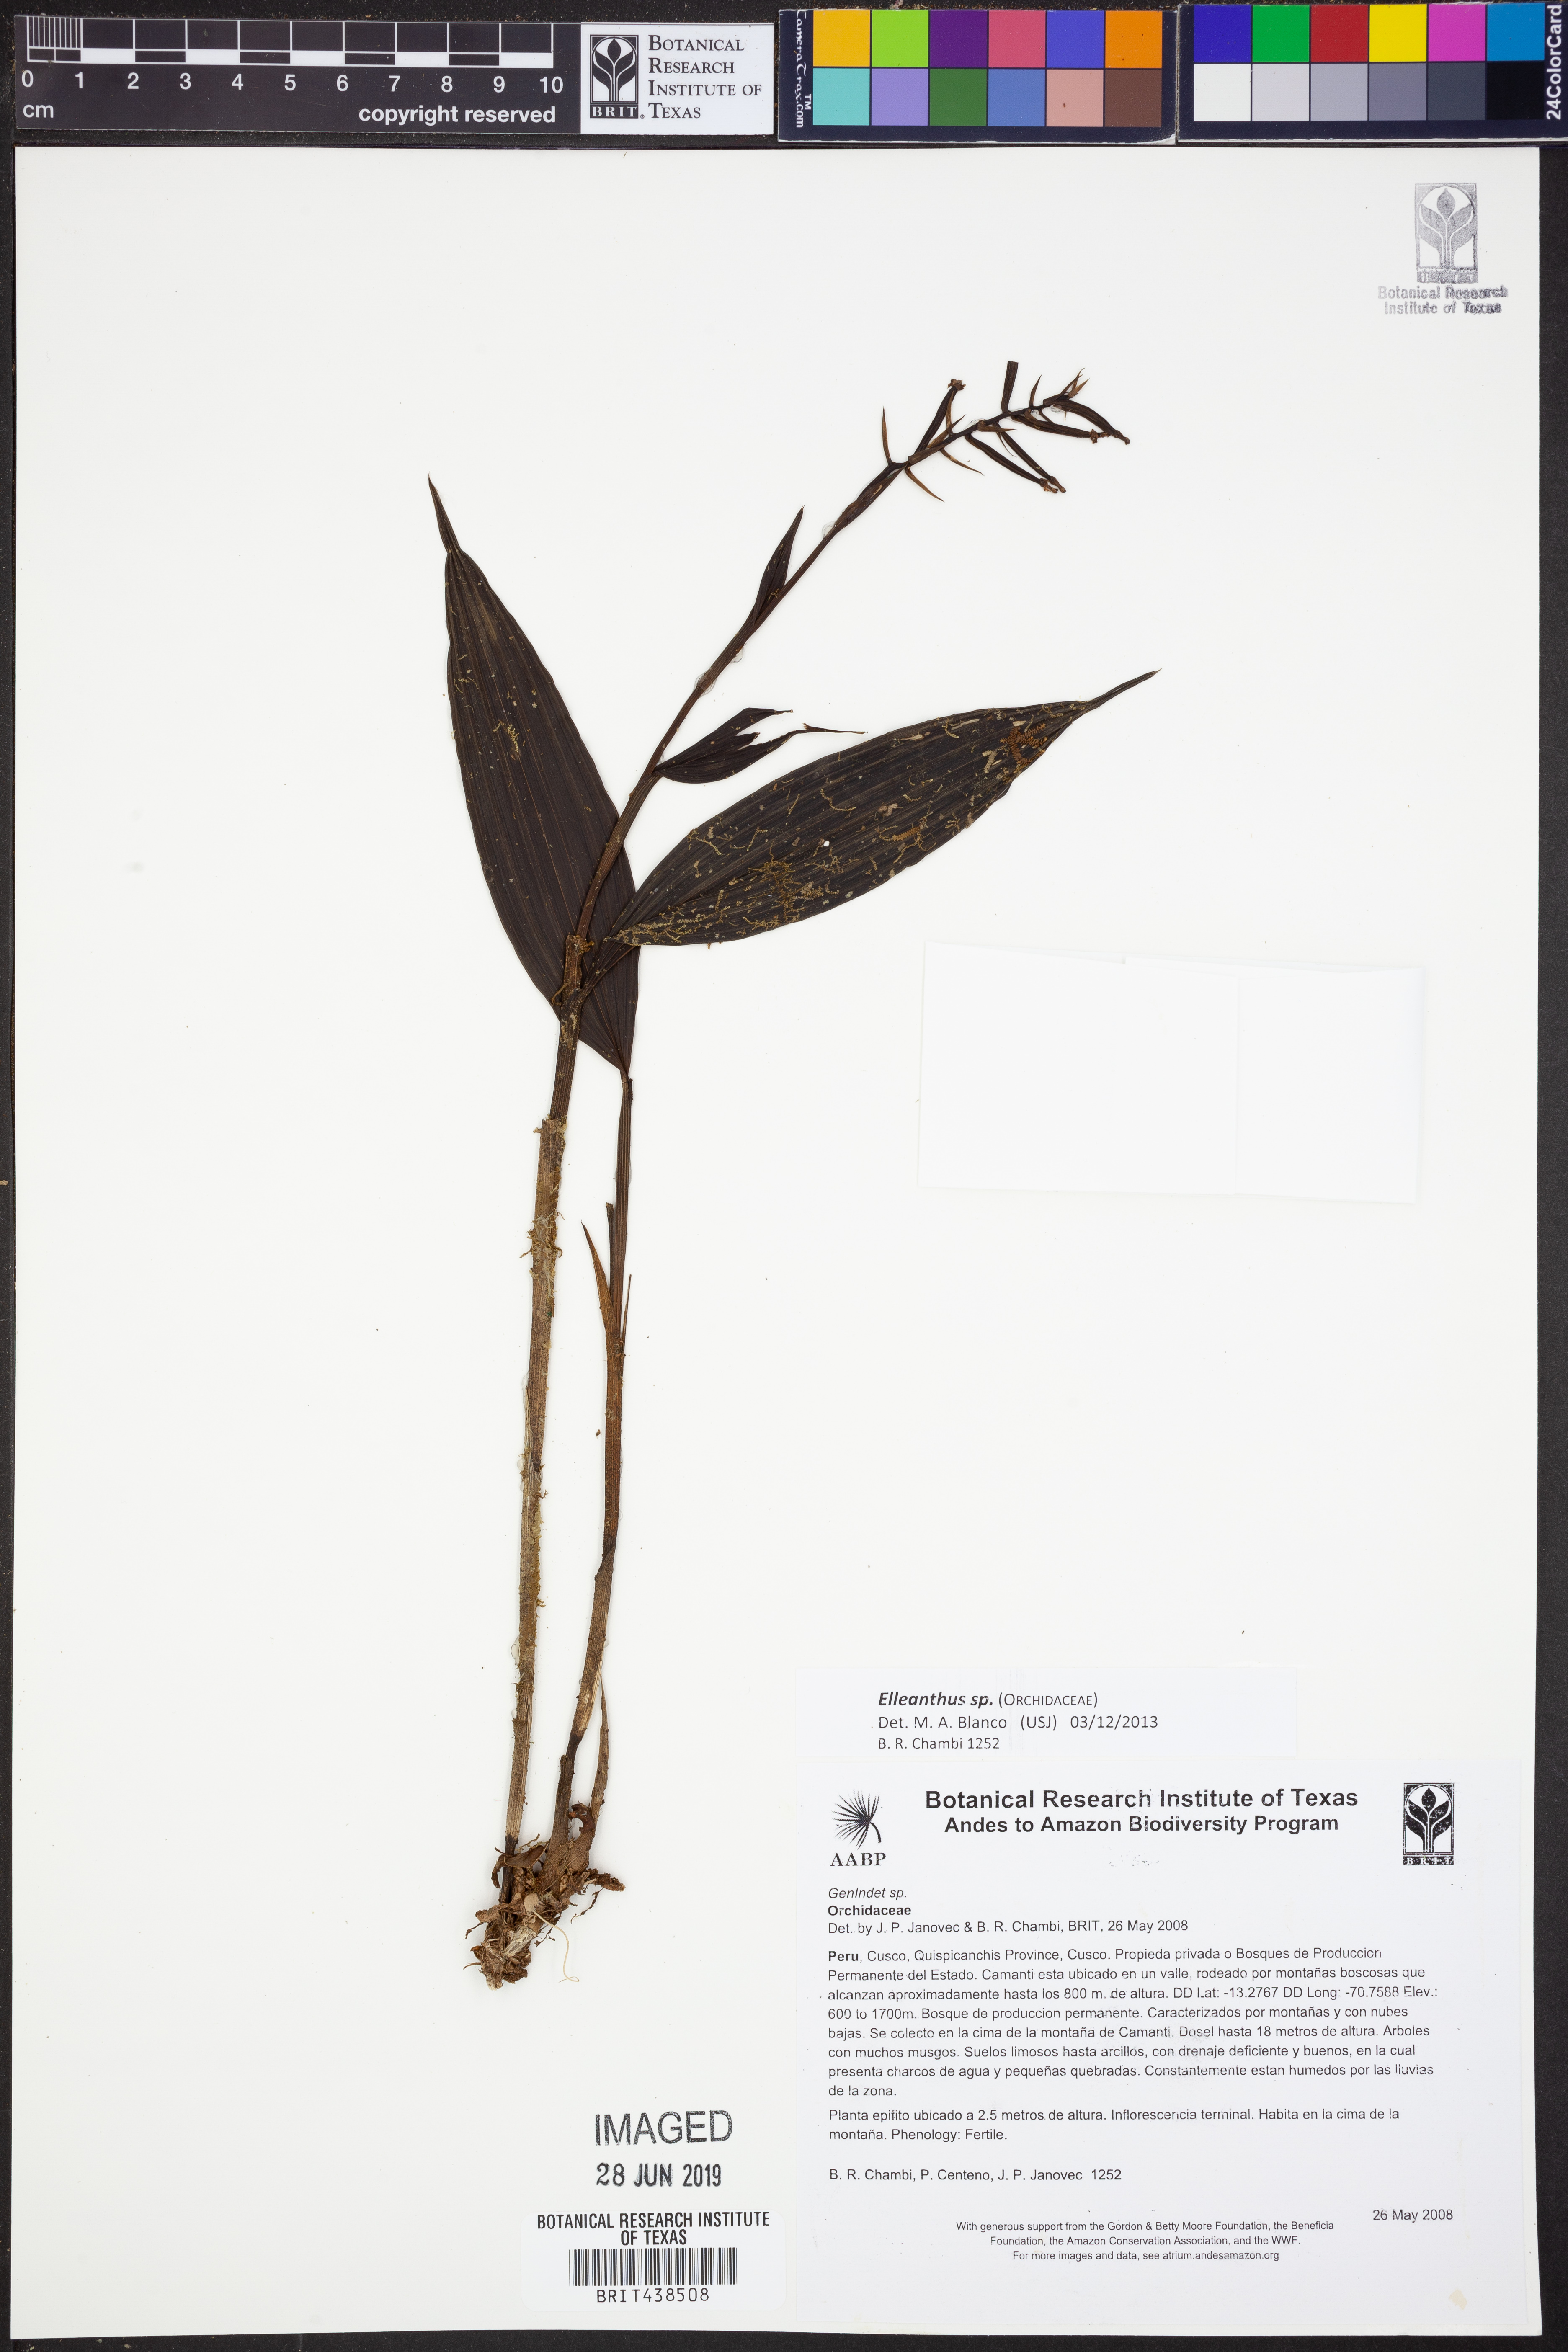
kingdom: Plantae
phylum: Tracheophyta
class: Liliopsida
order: Asparagales
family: Orchidaceae
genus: Elleanthus
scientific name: Elleanthus
